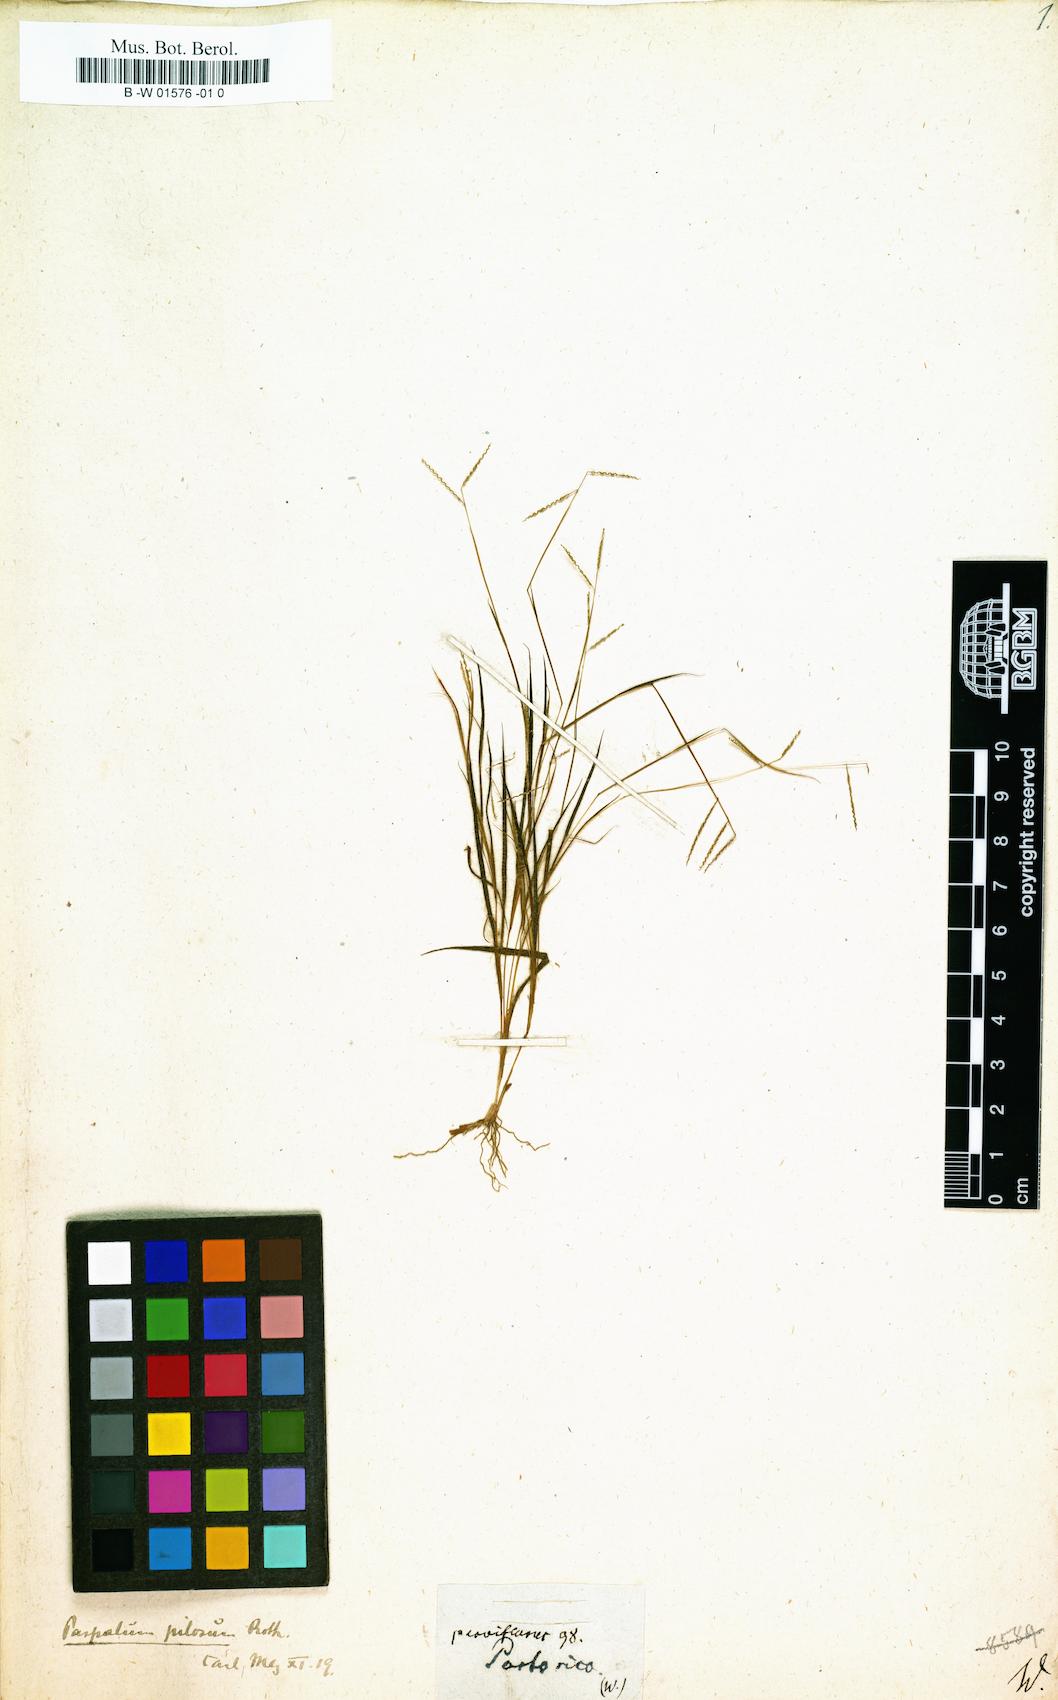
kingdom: Plantae
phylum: Tracheophyta
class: Liliopsida
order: Poales
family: Poaceae
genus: Paspalus
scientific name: Paspalus
